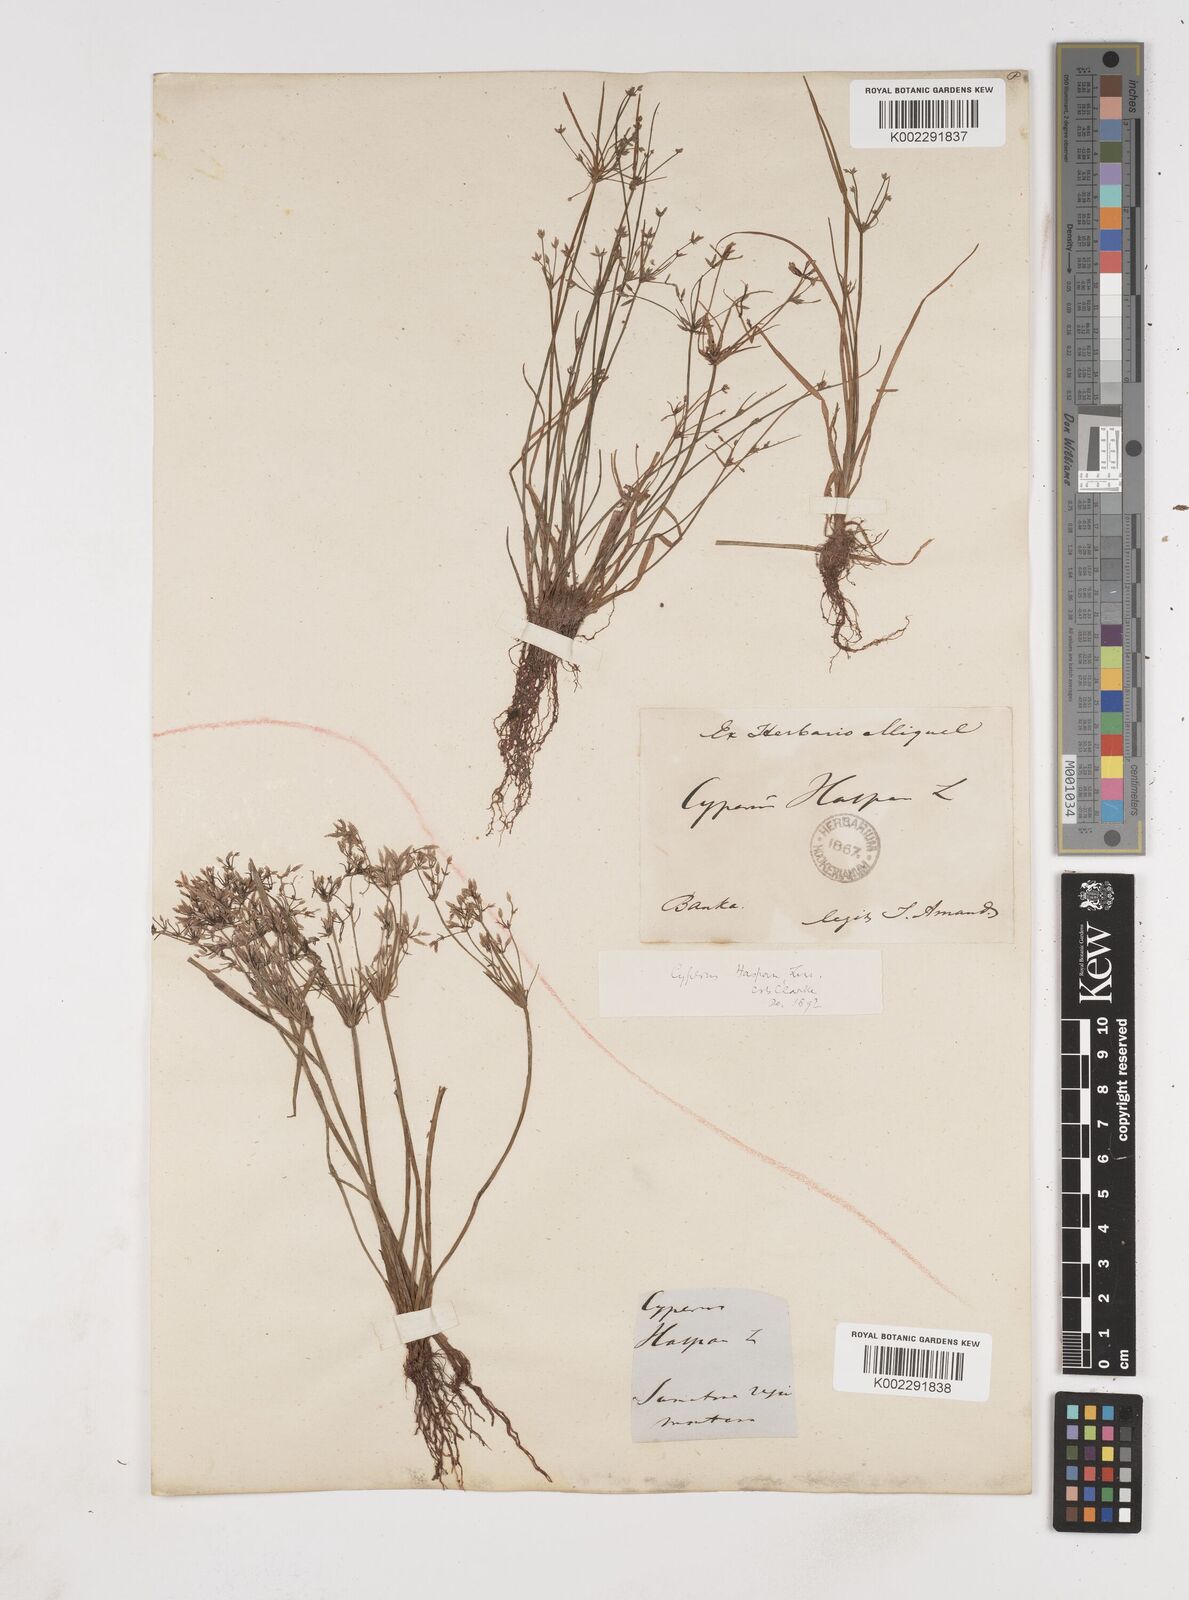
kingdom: Plantae
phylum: Tracheophyta
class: Liliopsida
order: Poales
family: Cyperaceae
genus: Cyperus
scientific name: Cyperus haspan
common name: Haspan flatsedge
